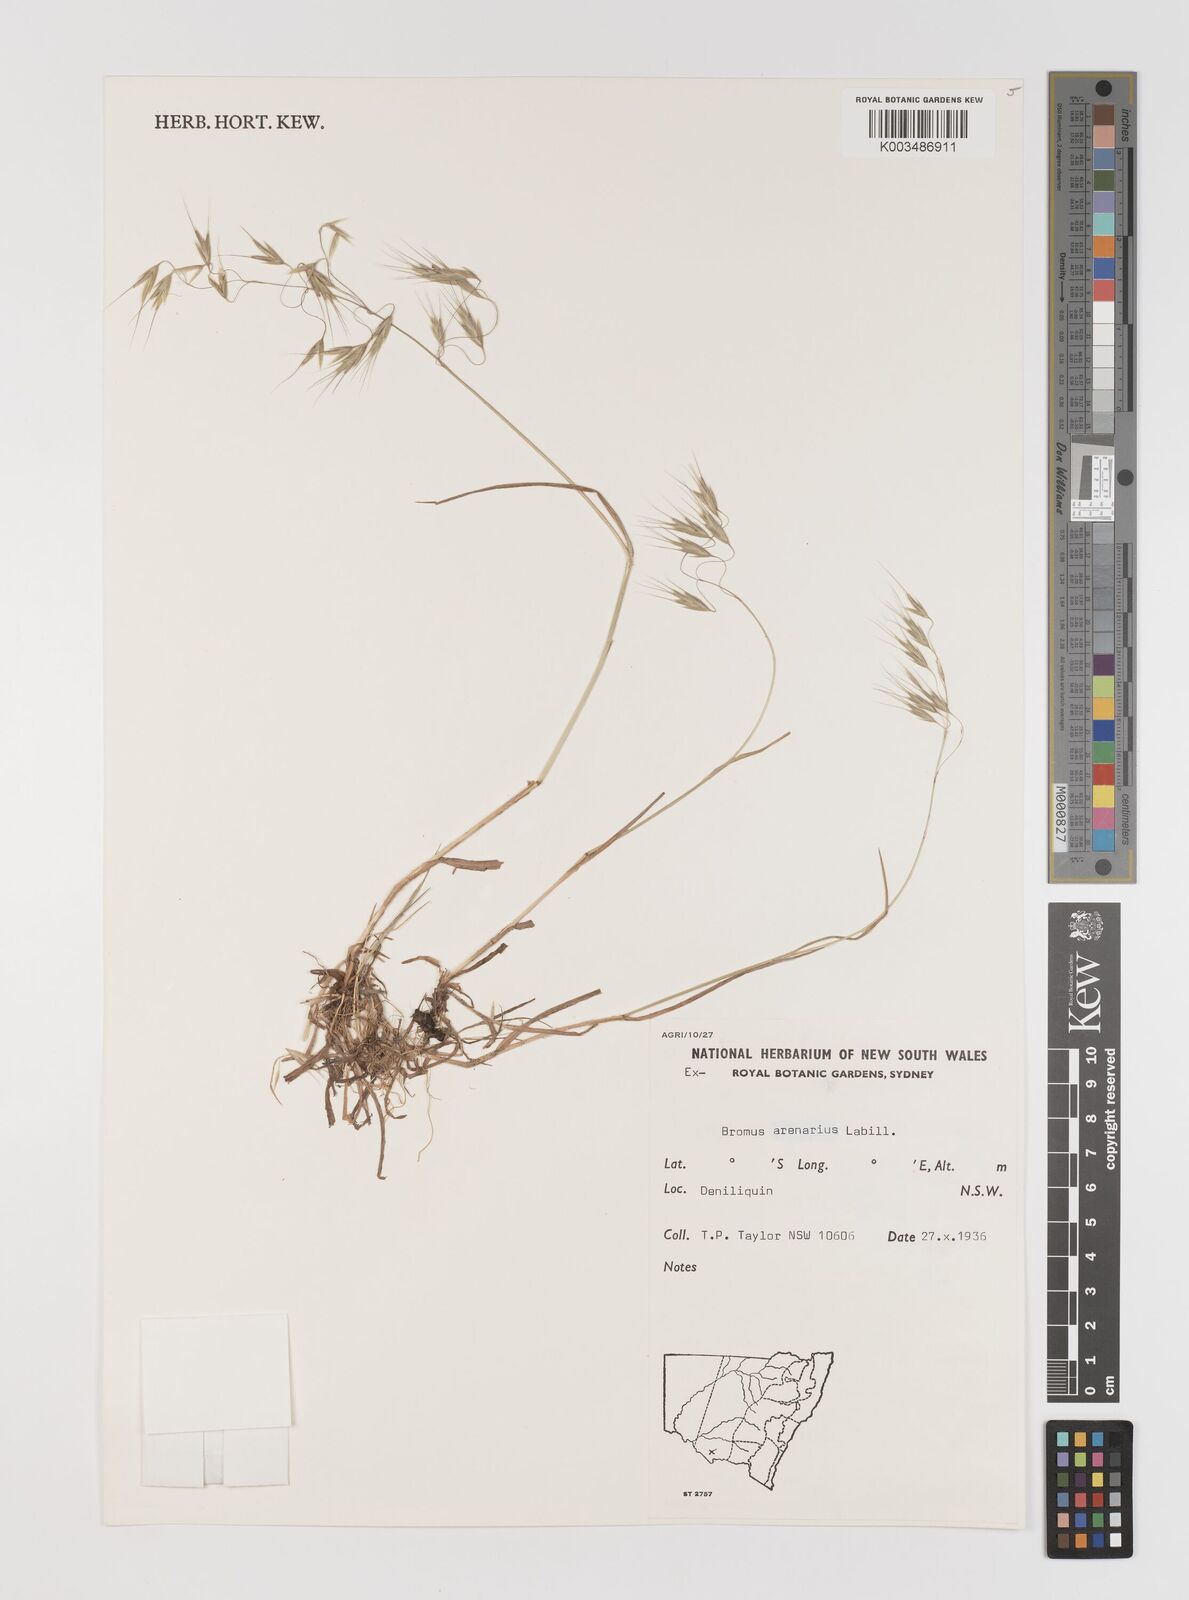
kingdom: Plantae
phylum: Tracheophyta
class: Liliopsida
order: Poales
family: Poaceae
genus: Bromus
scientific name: Bromus arenarius
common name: Australian brome
